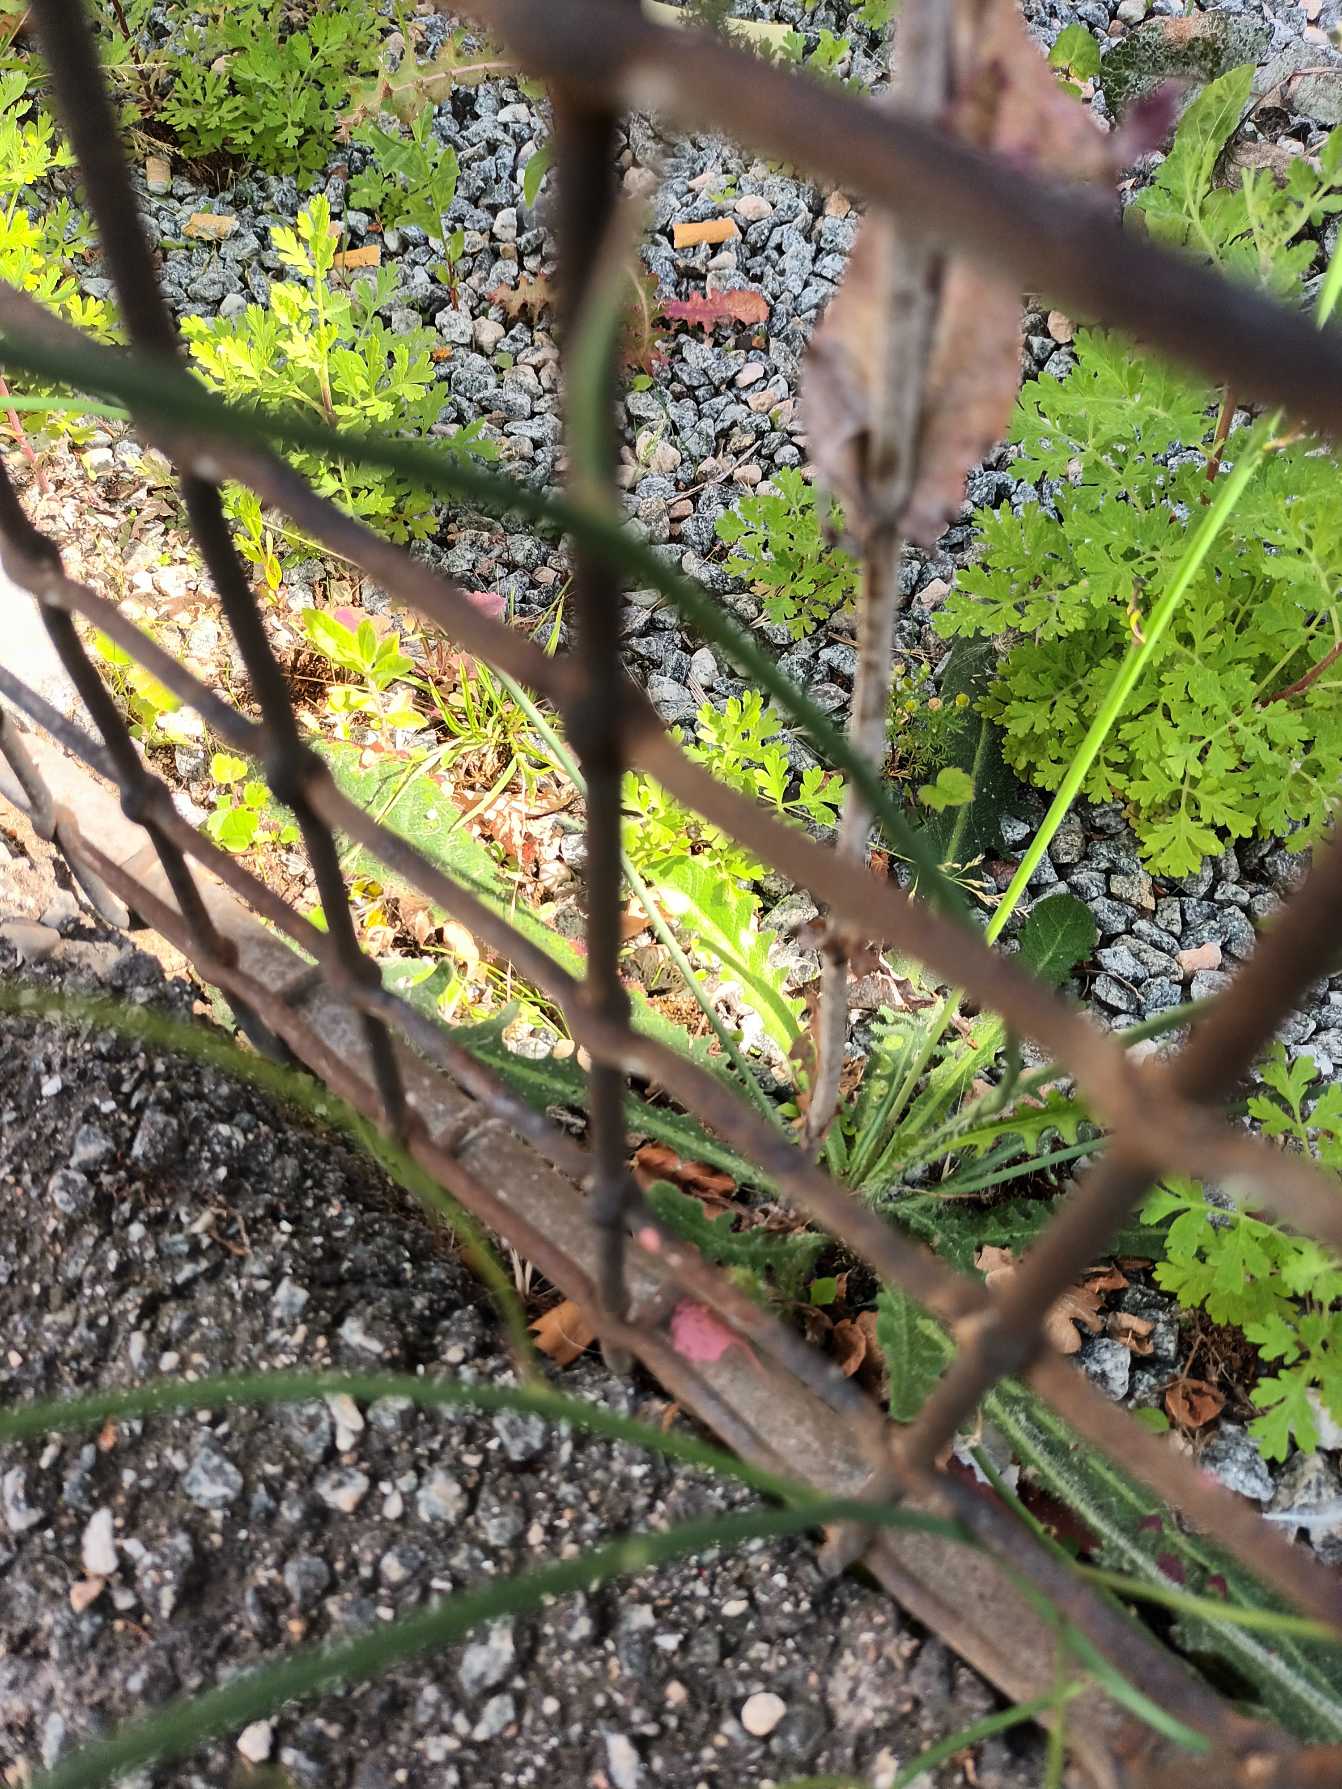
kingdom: Plantae
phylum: Tracheophyta
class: Magnoliopsida
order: Asterales
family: Asteraceae
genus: Hypochaeris
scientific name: Hypochaeris radicata
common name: Almindelig kongepen
